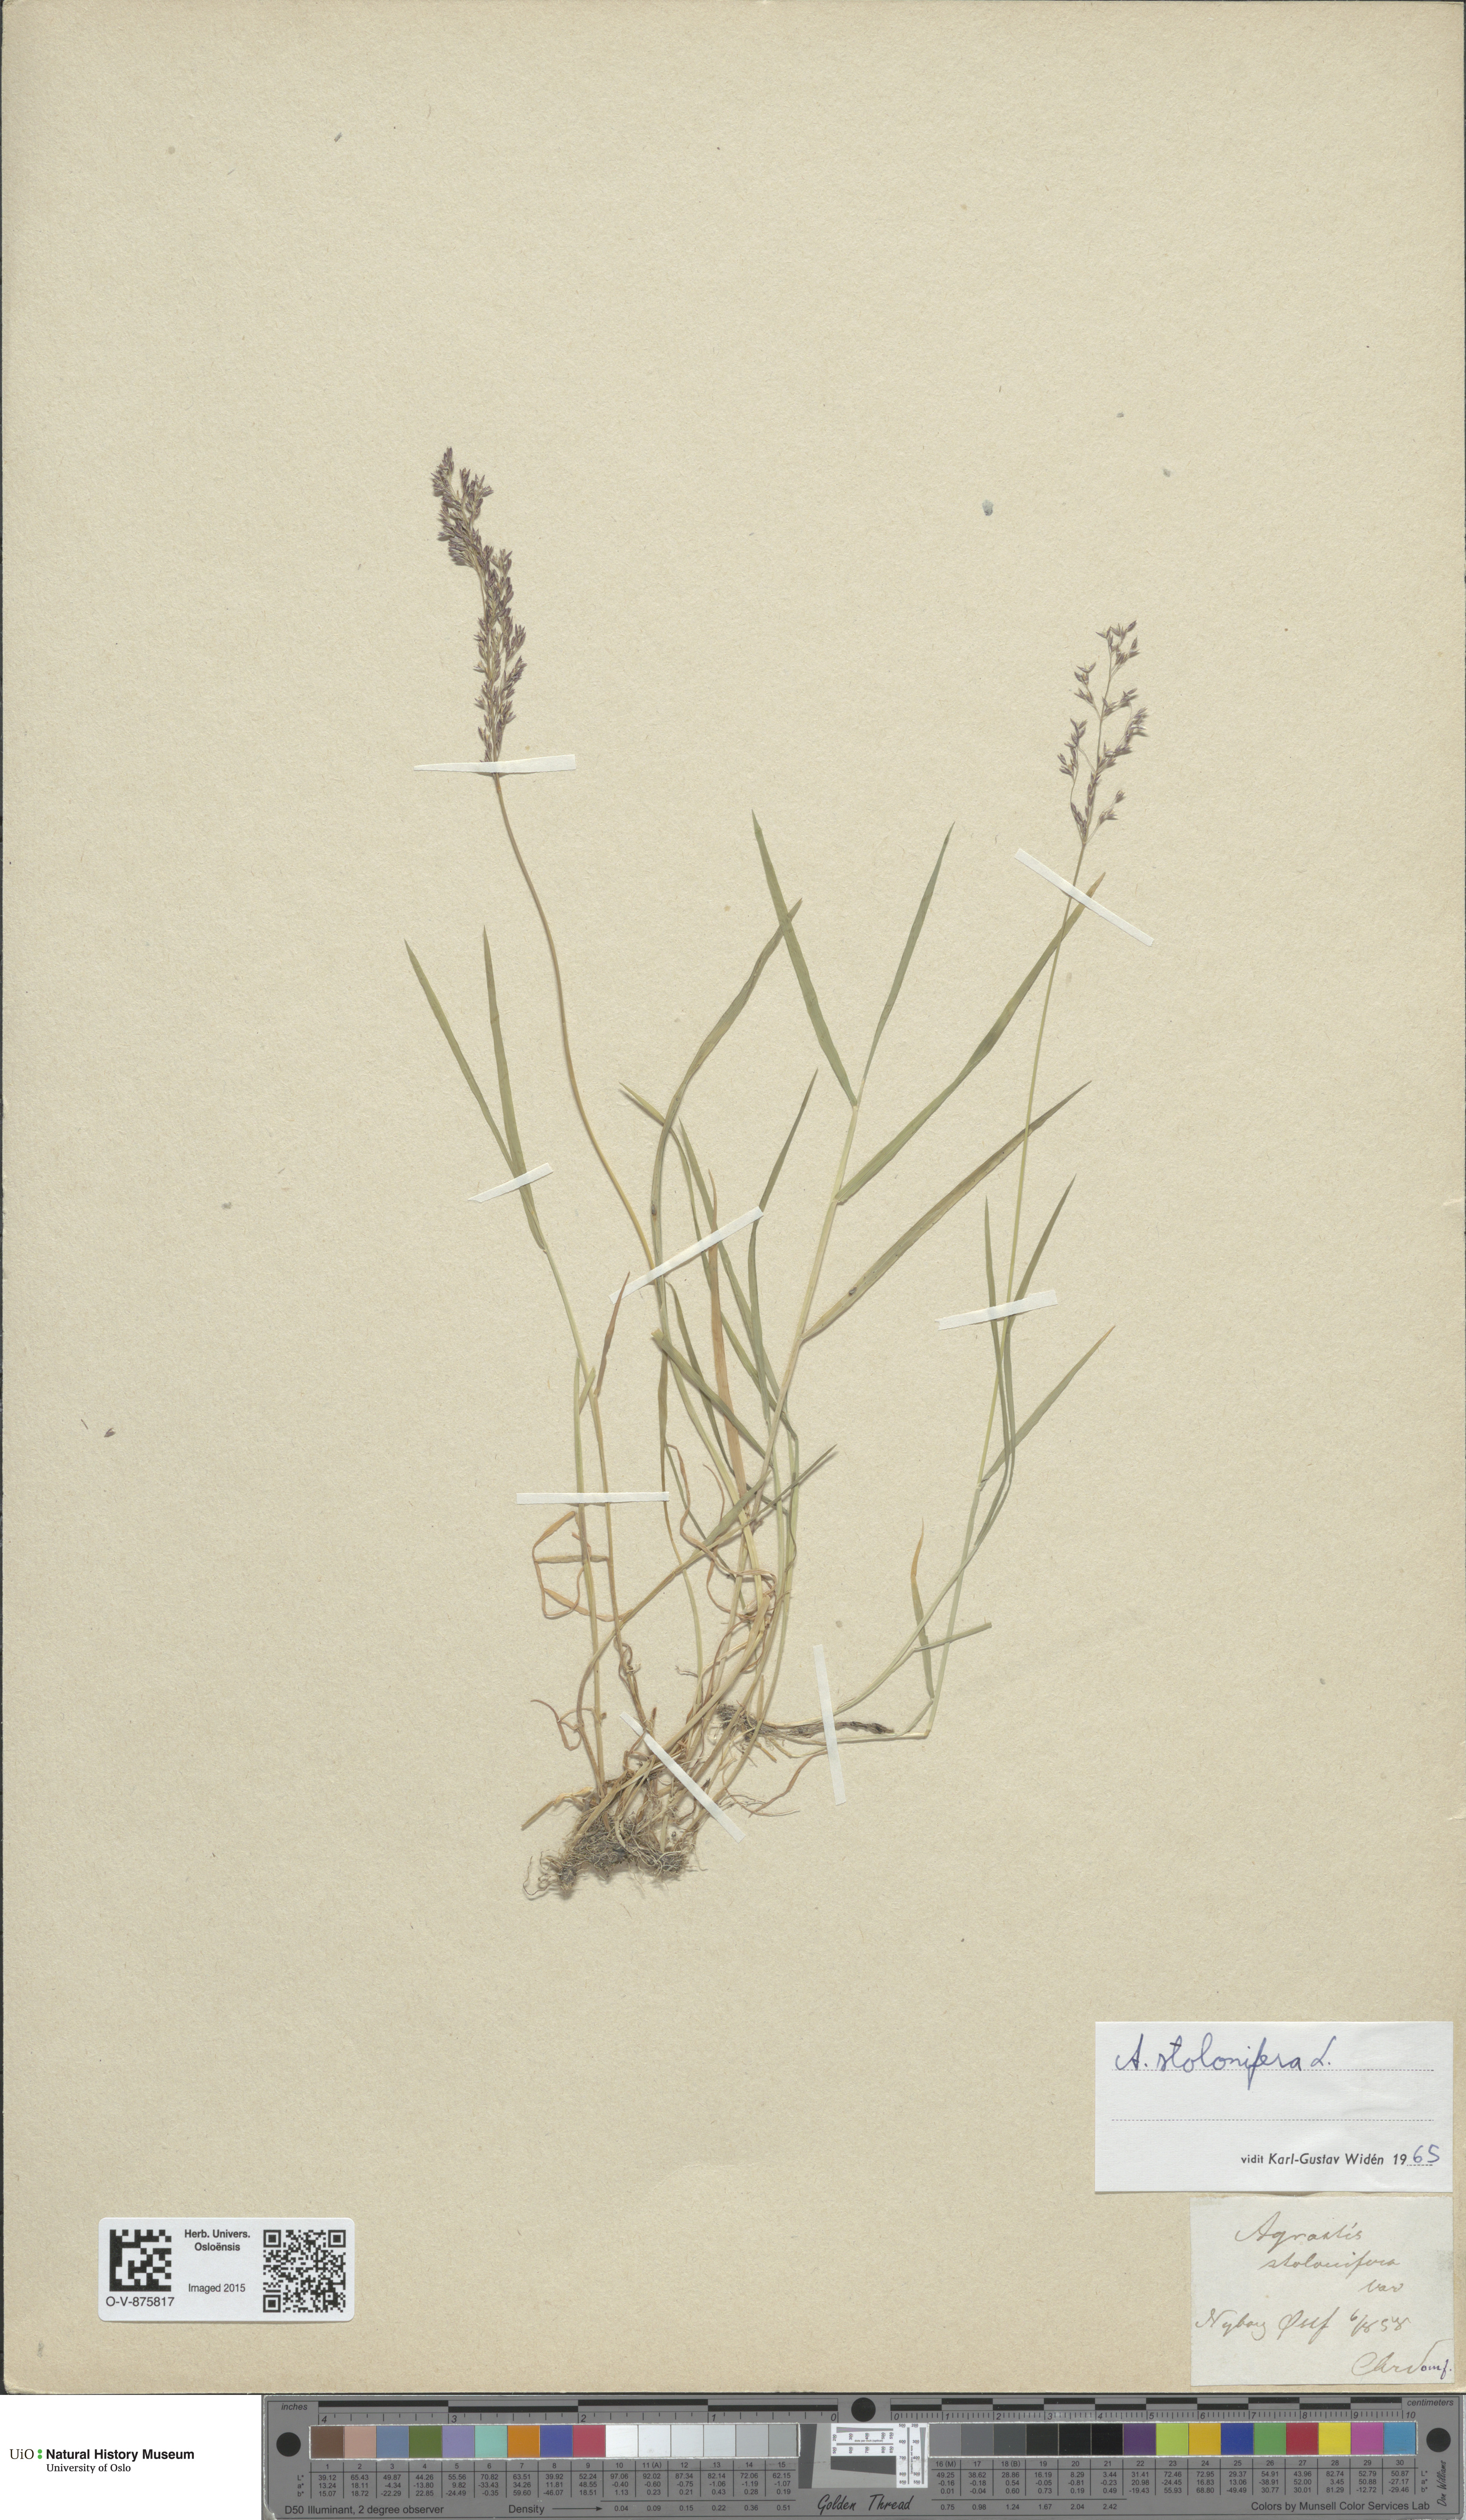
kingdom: Plantae
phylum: Tracheophyta
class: Liliopsida
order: Poales
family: Poaceae
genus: Agrostis
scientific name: Agrostis stolonifera
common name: Creeping bentgrass
